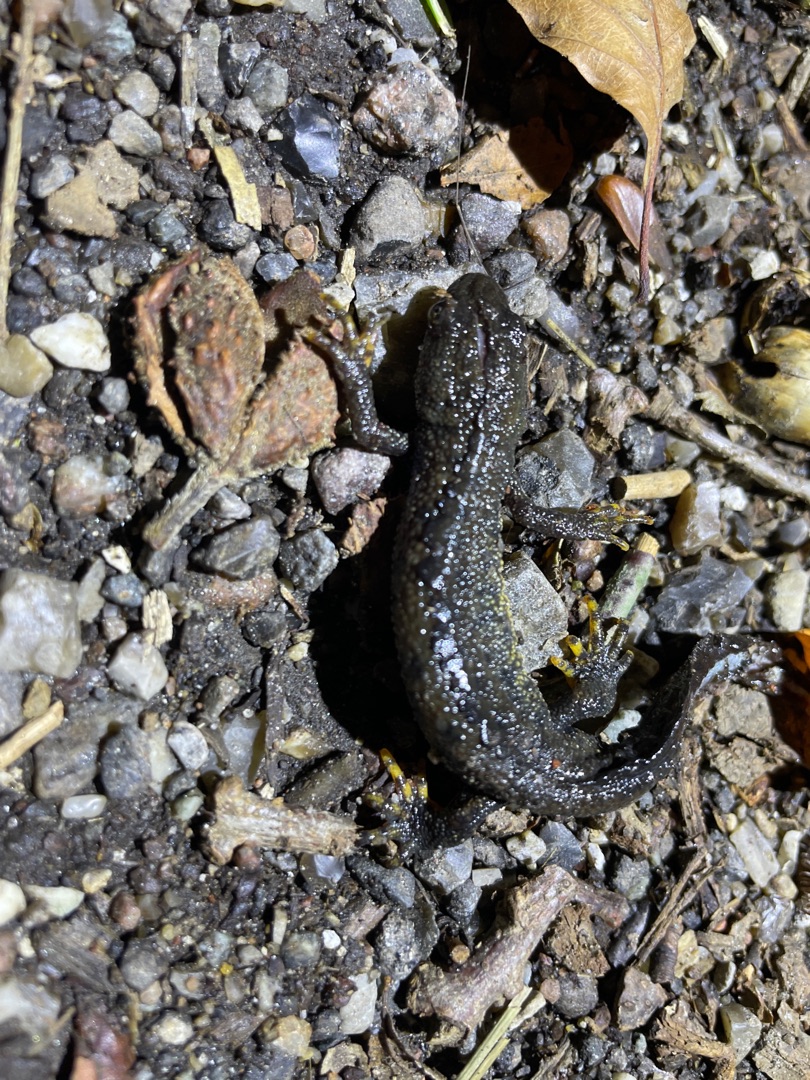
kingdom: Animalia
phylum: Chordata
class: Amphibia
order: Caudata
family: Salamandridae
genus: Triturus
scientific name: Triturus cristatus
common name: Stor vandsalamander
